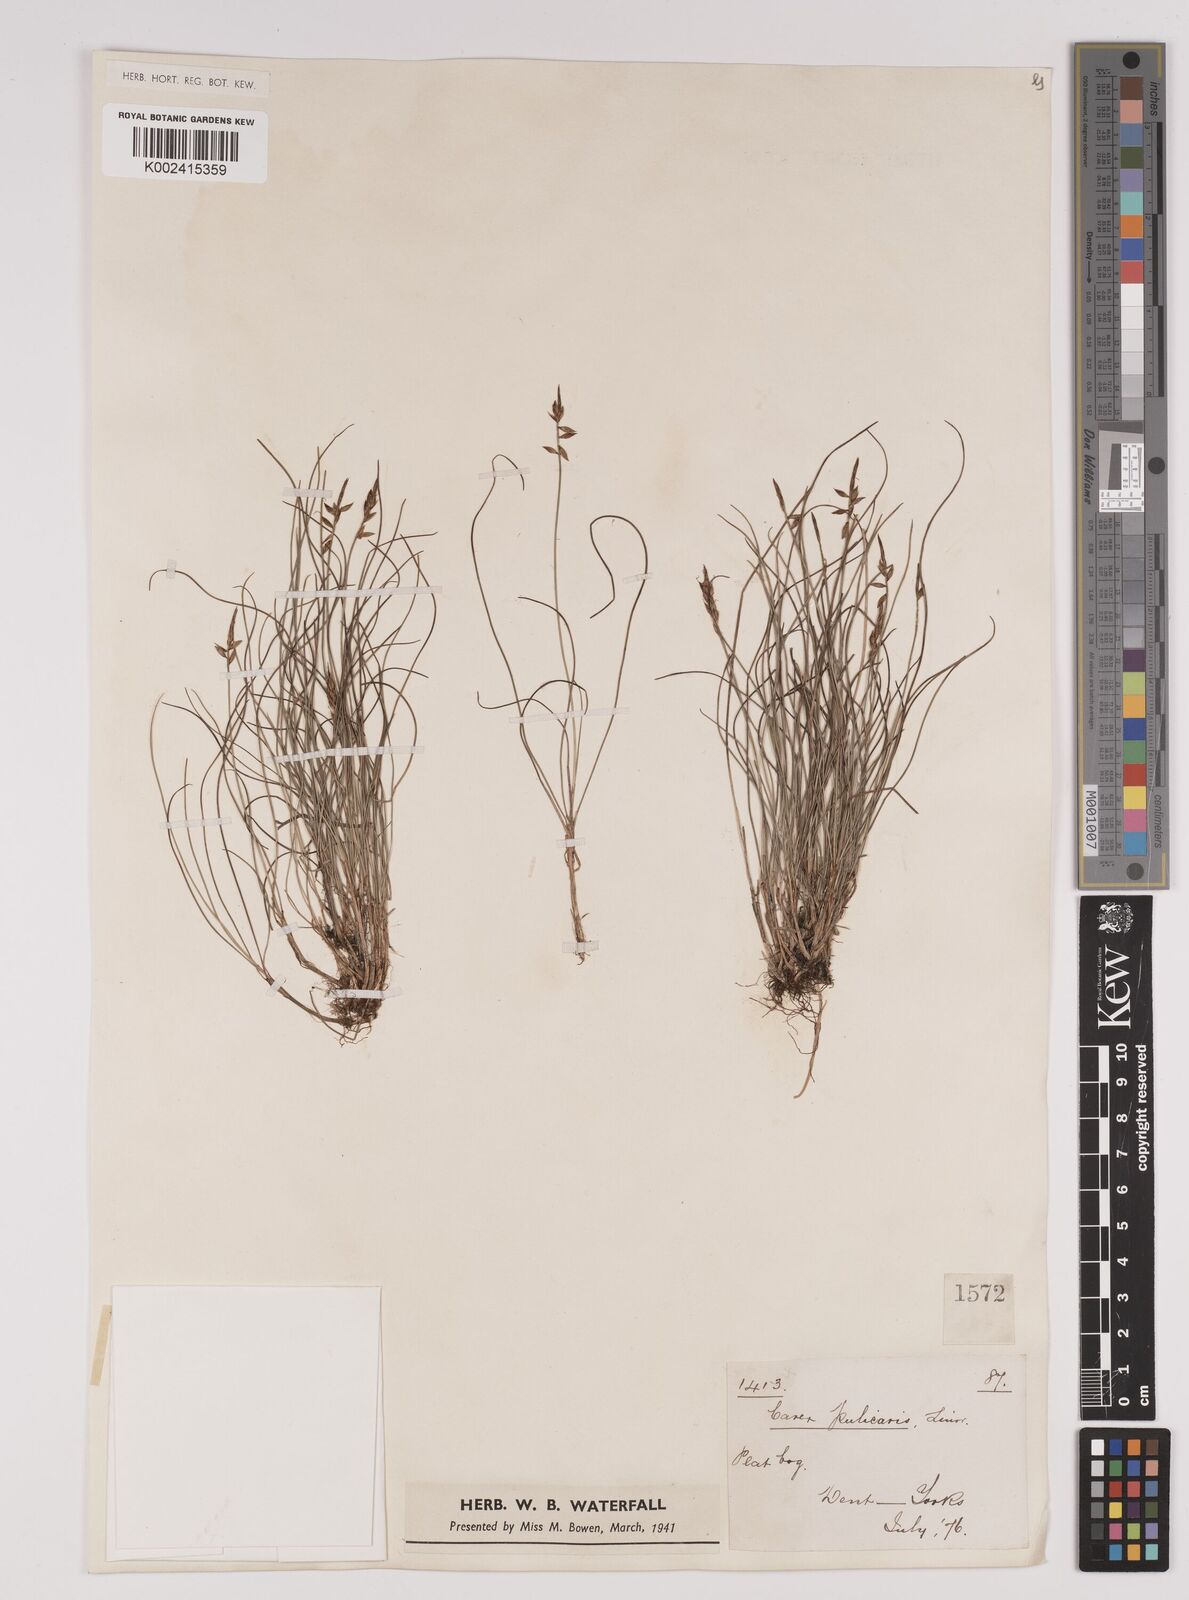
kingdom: Plantae
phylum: Tracheophyta
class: Liliopsida
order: Poales
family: Cyperaceae
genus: Carex
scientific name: Carex pulicaris
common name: Flea sedge
